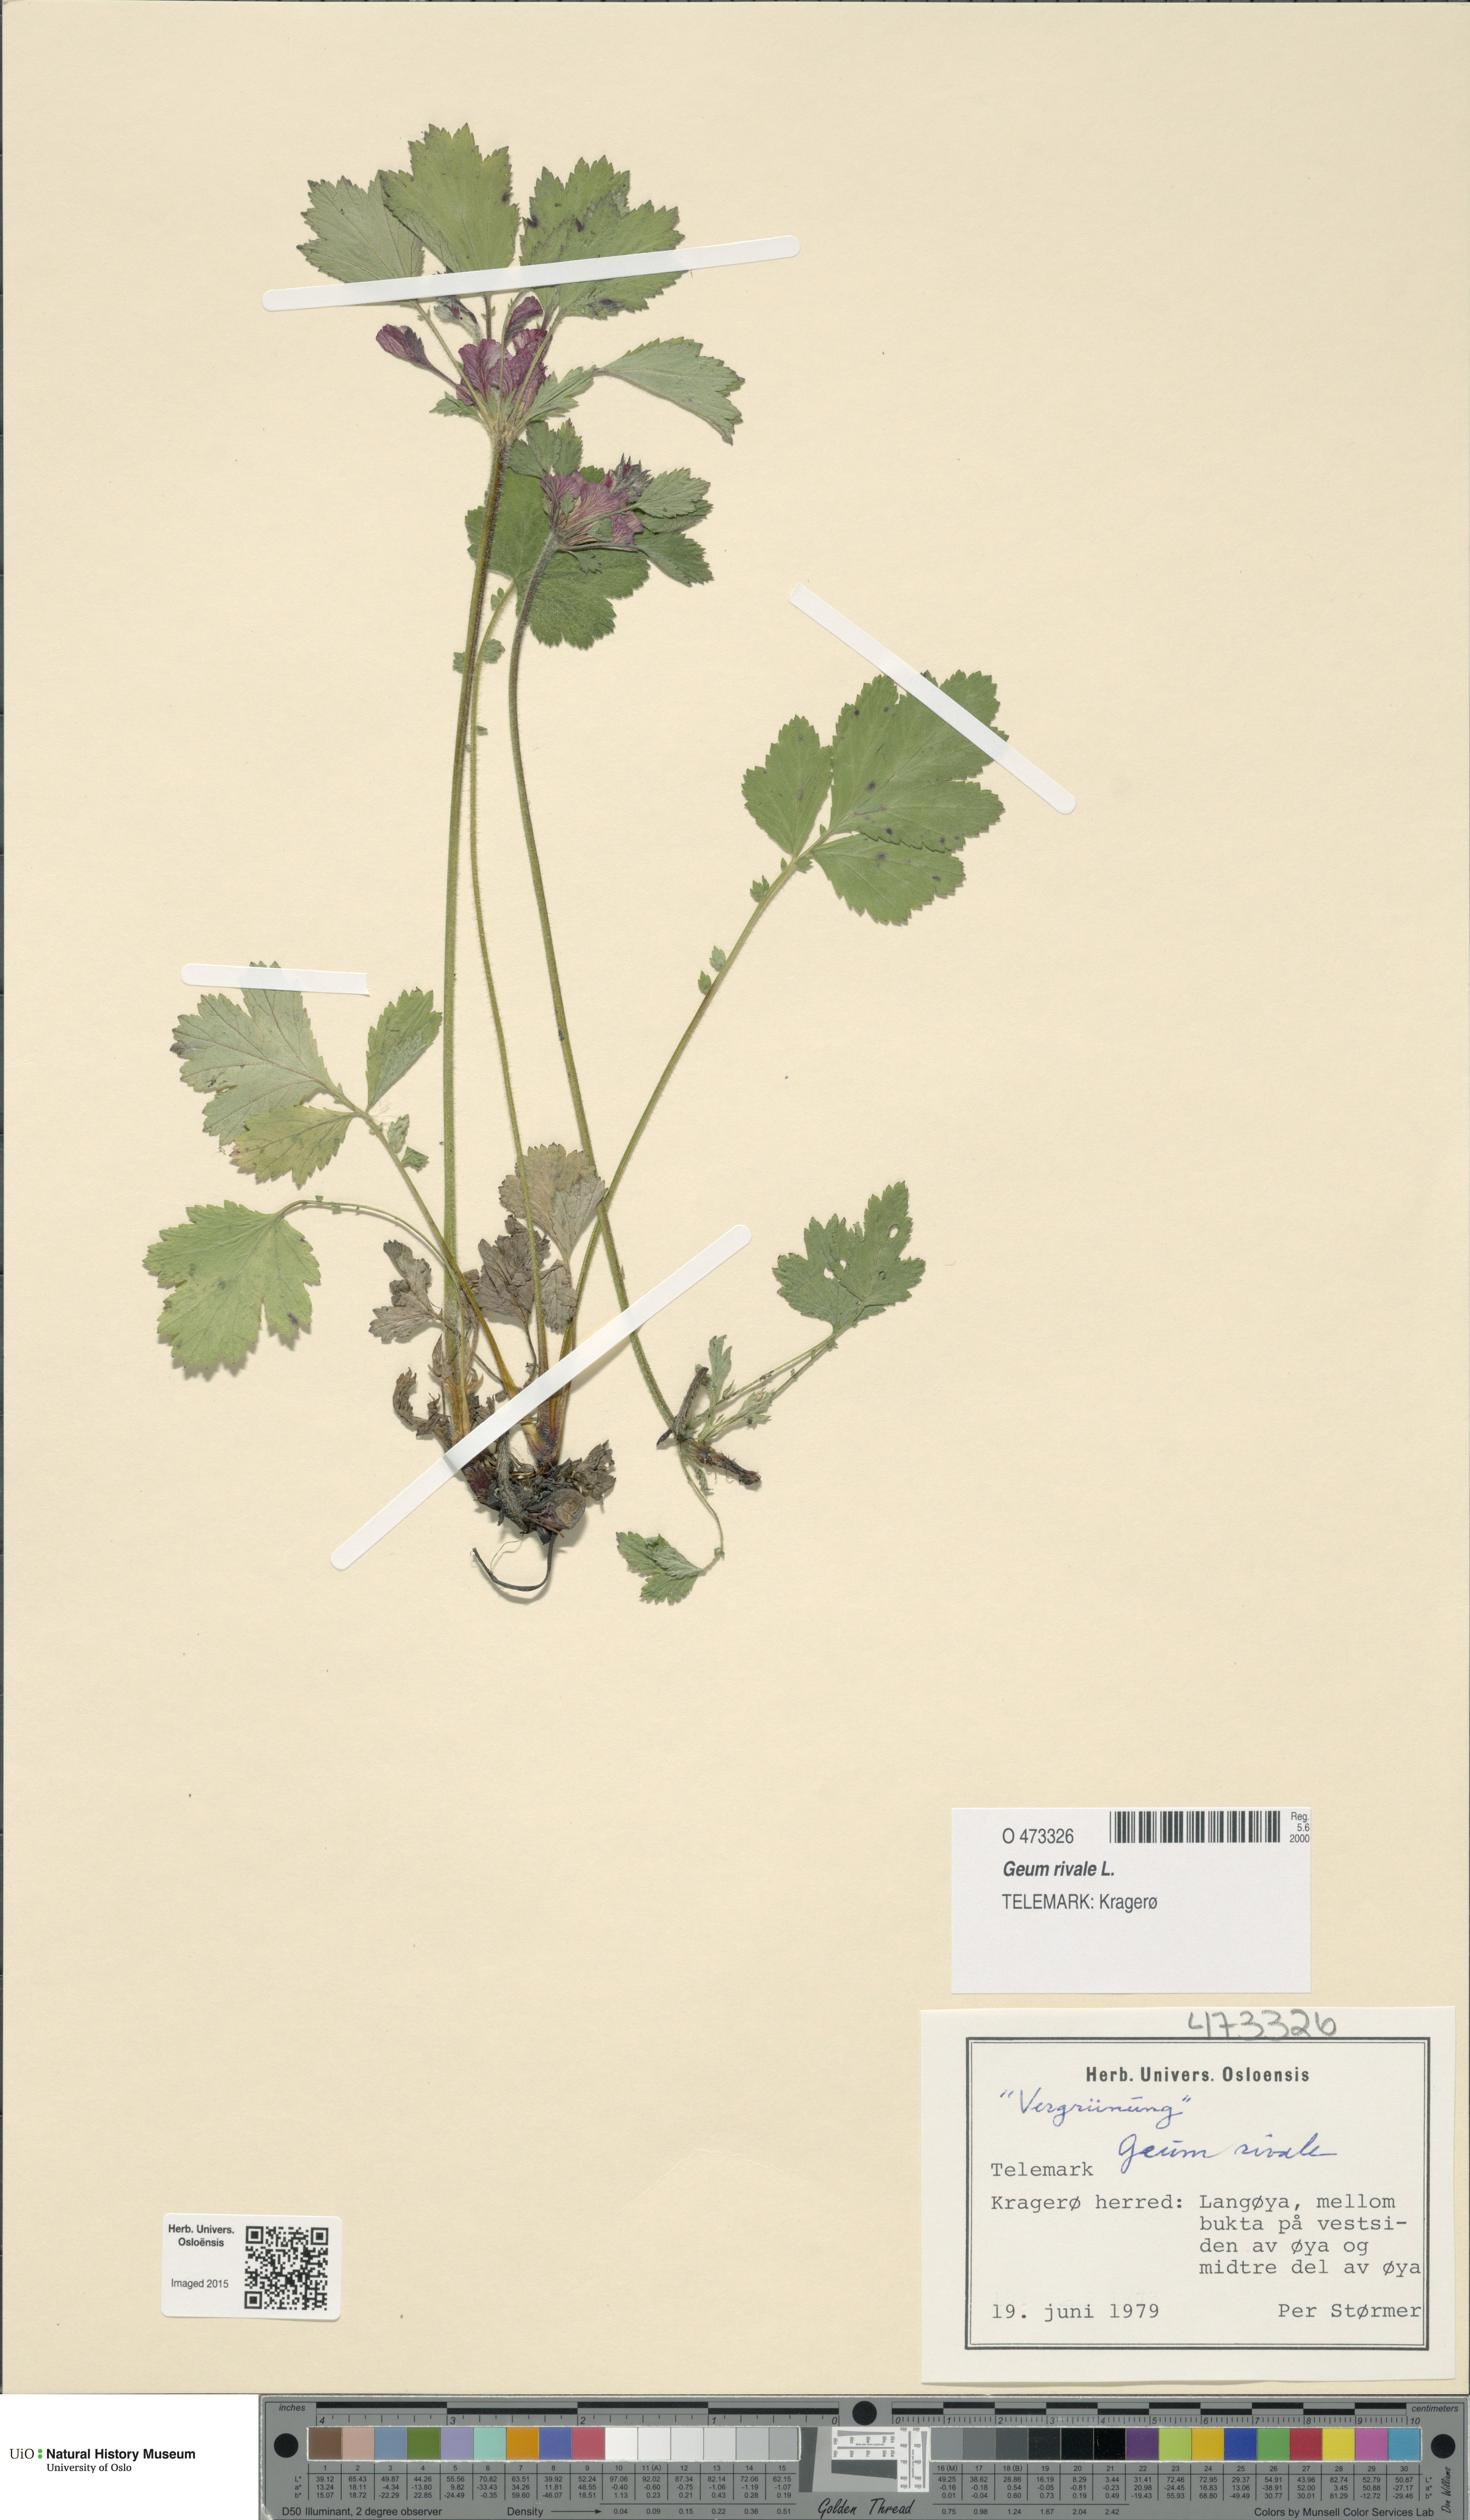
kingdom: Plantae
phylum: Tracheophyta
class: Magnoliopsida
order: Rosales
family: Rosaceae
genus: Geum
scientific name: Geum rivale
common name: Water avens
